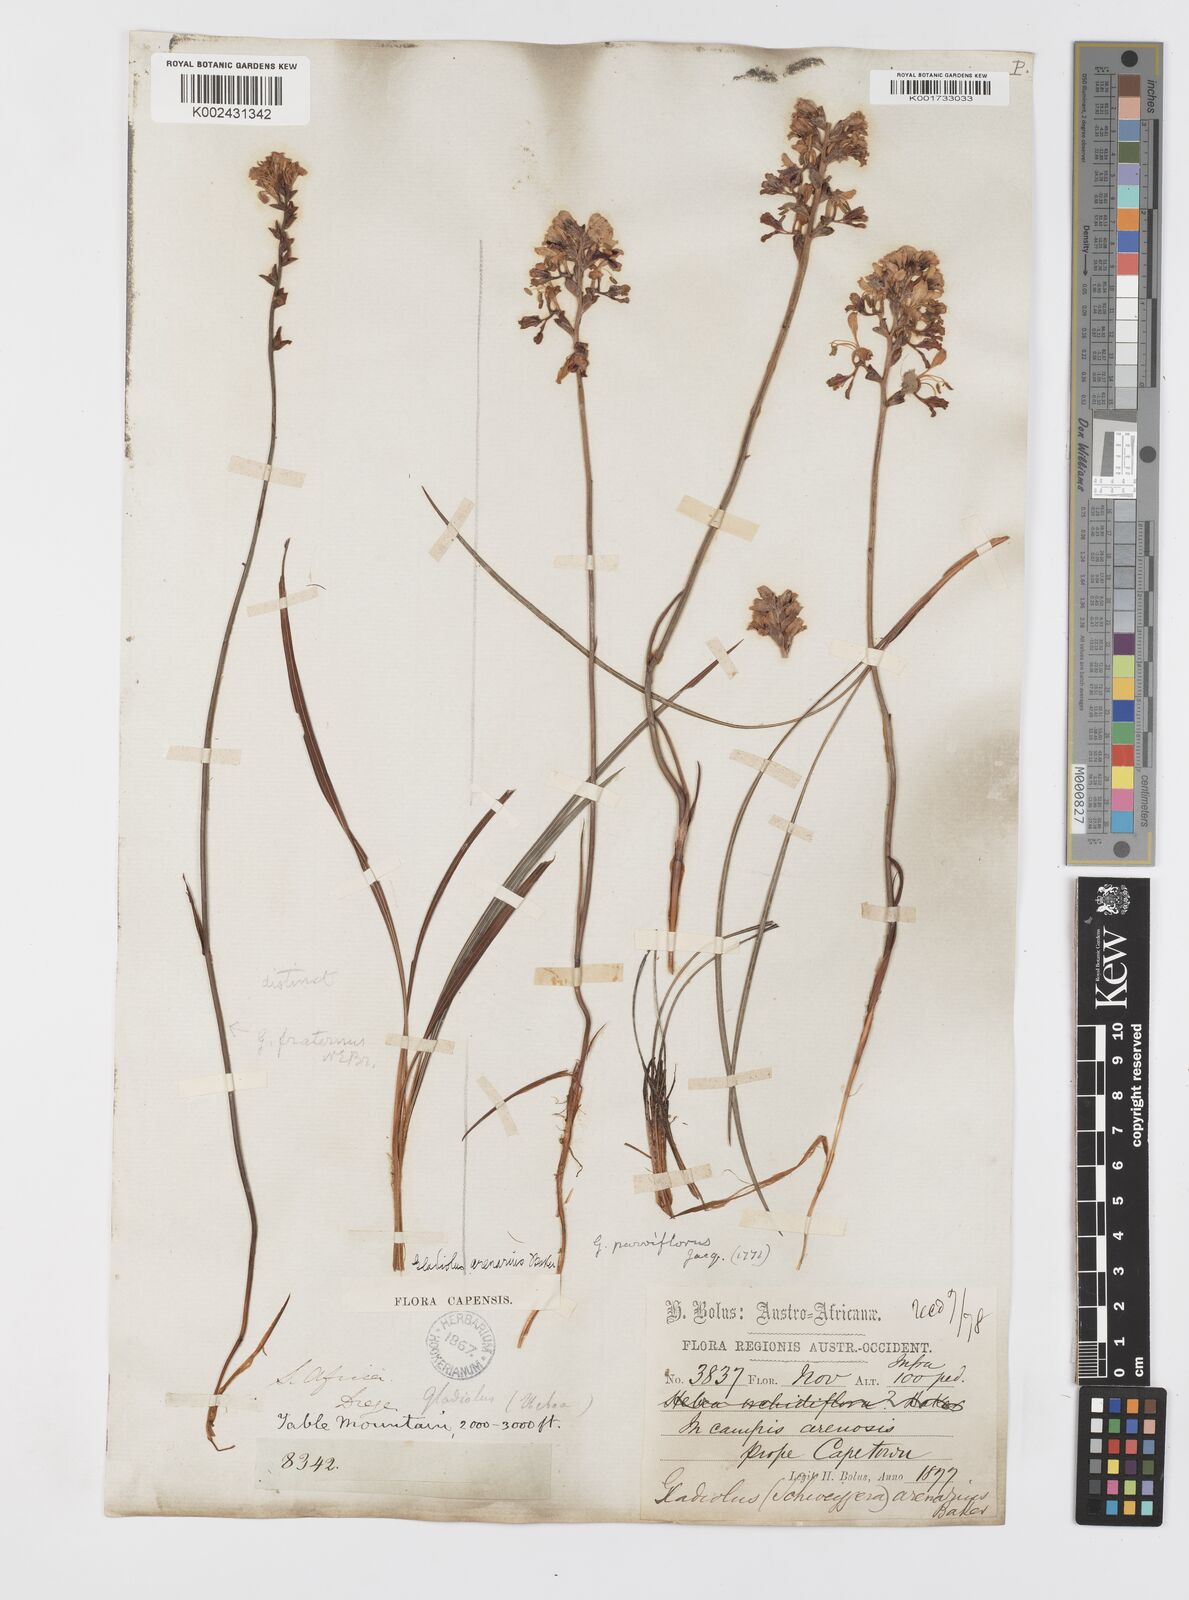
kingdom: Plantae
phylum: Tracheophyta
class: Liliopsida
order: Asparagales
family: Iridaceae
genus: Tritoniopsis
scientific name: Tritoniopsis parviflora
